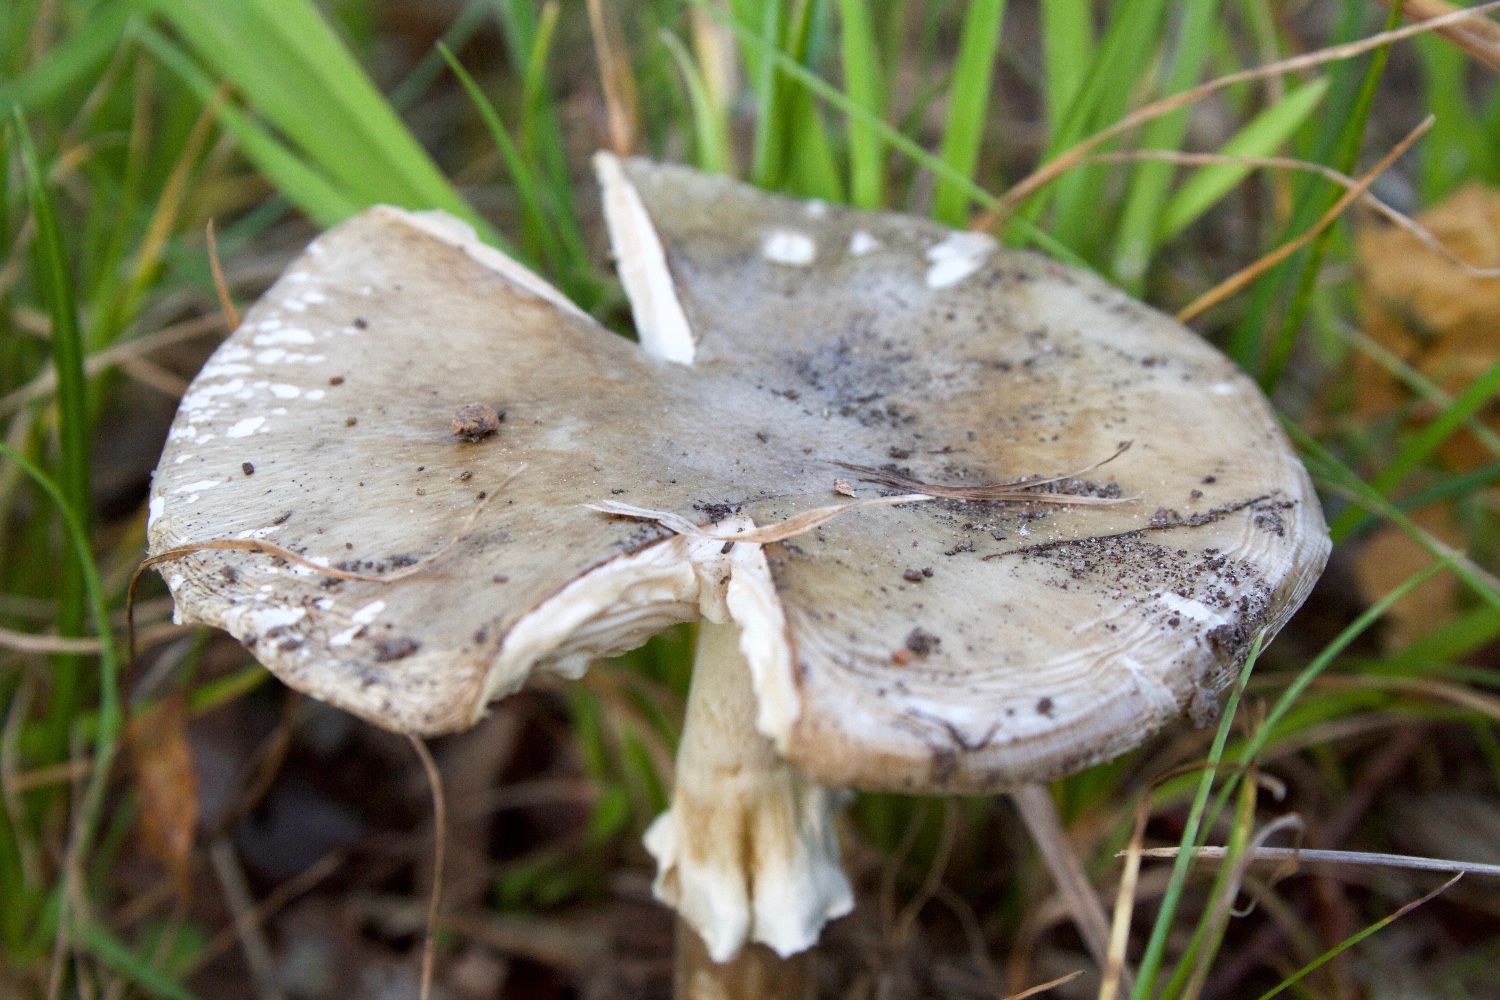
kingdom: Fungi
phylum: Basidiomycota
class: Agaricomycetes
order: Agaricales
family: Amanitaceae
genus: Amanita
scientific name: Amanita phalloides
